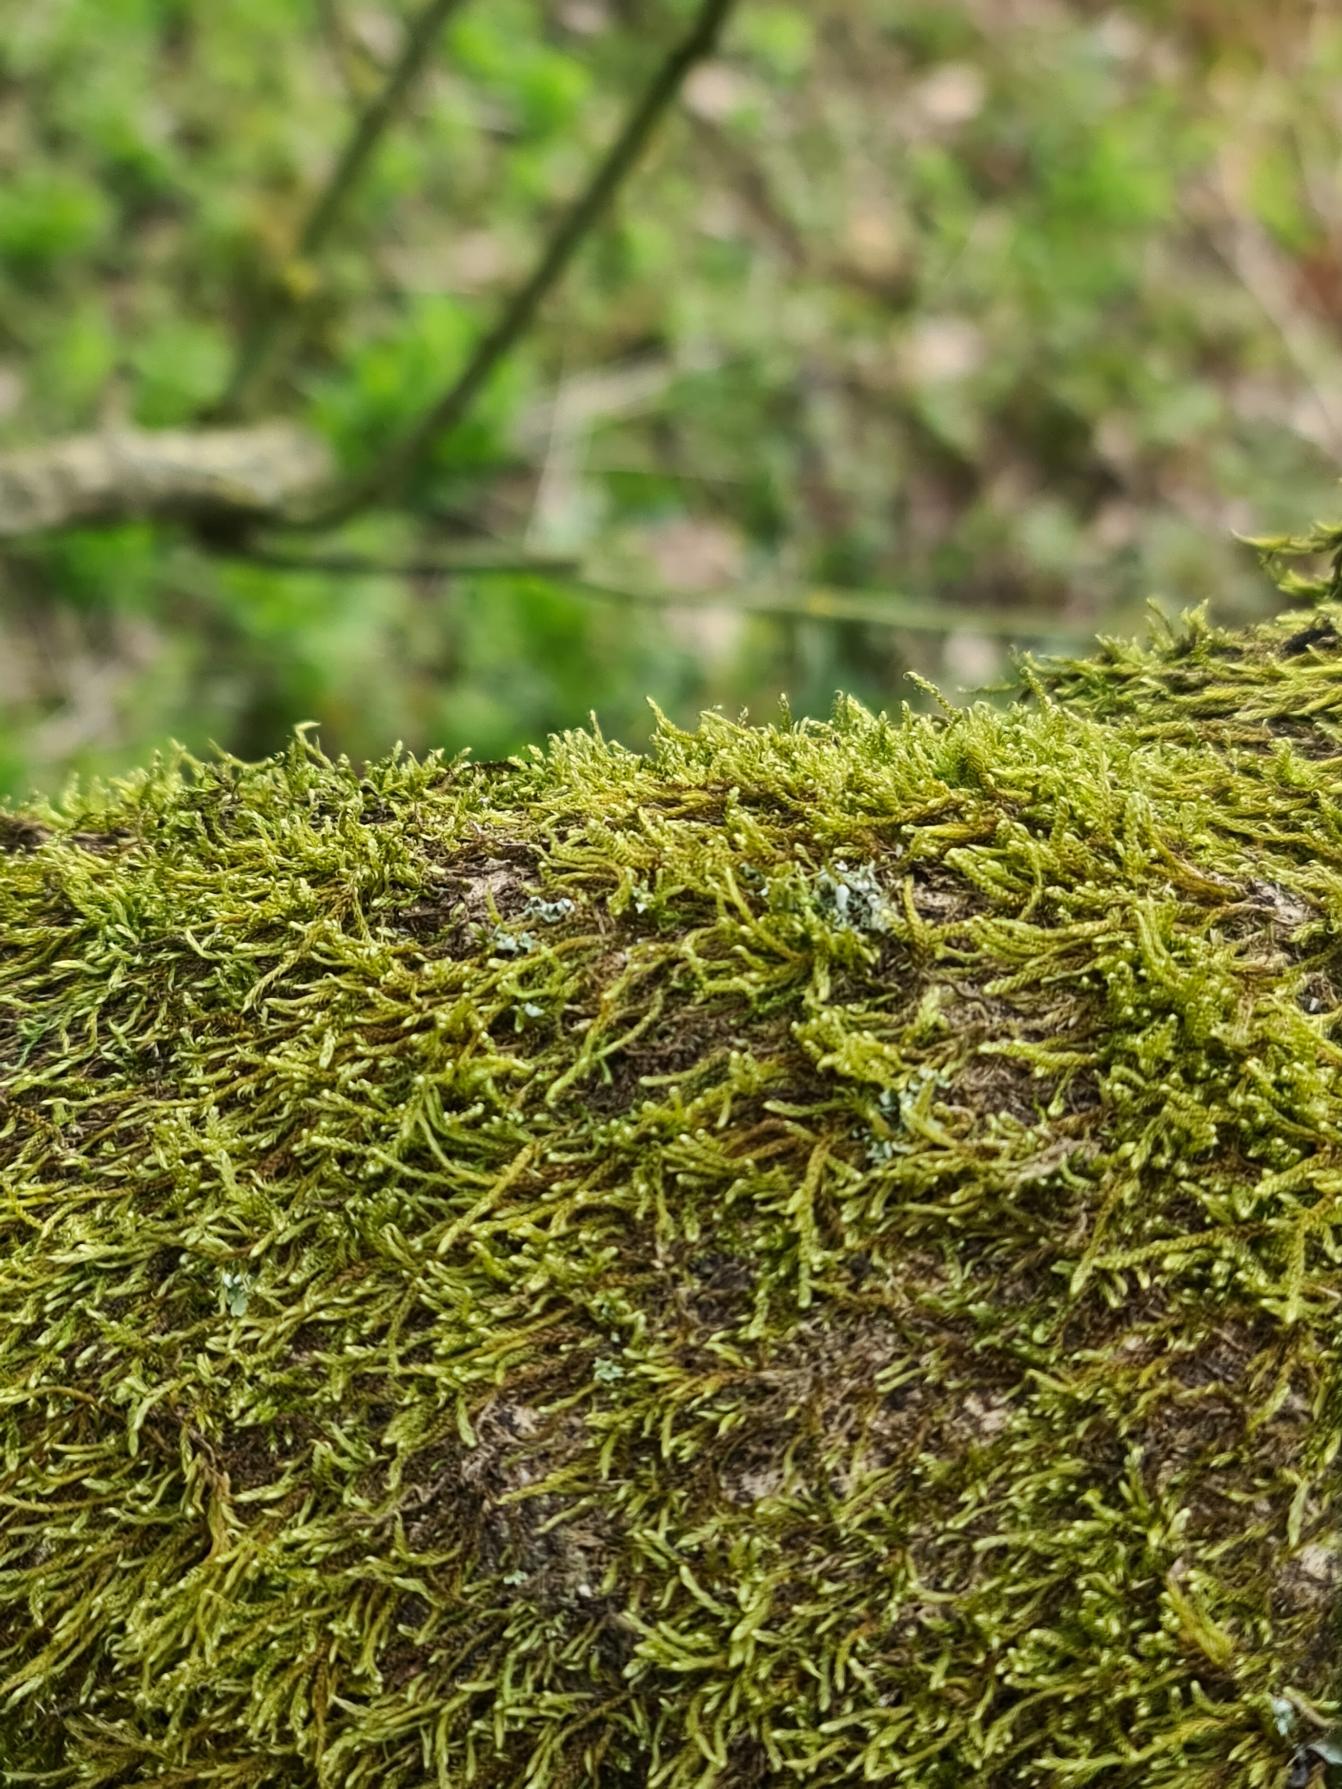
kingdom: Plantae
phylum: Bryophyta
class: Bryopsida
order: Hypnales
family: Hypnaceae
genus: Hypnum
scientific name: Hypnum cupressiforme
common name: Almindelig cypresmos
